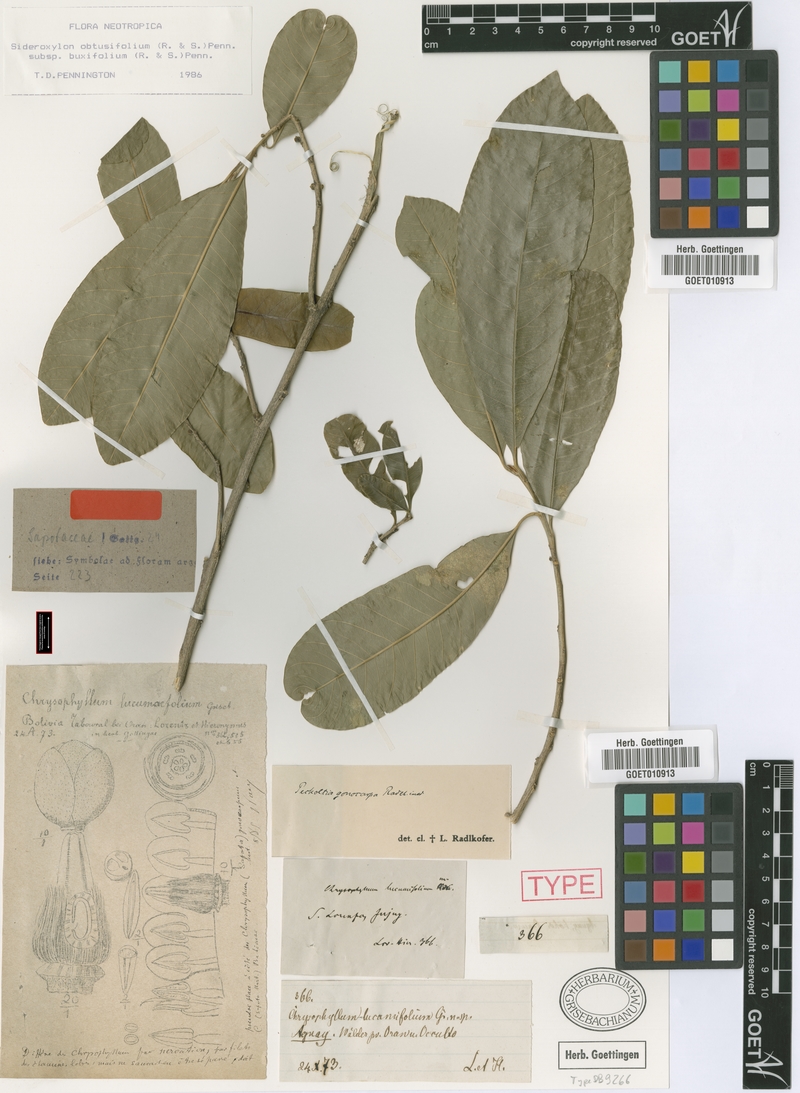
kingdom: Plantae
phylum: Tracheophyta
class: Magnoliopsida
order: Ericales
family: Sapotaceae
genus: Sideroxylon
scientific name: Sideroxylon obtusifolium
